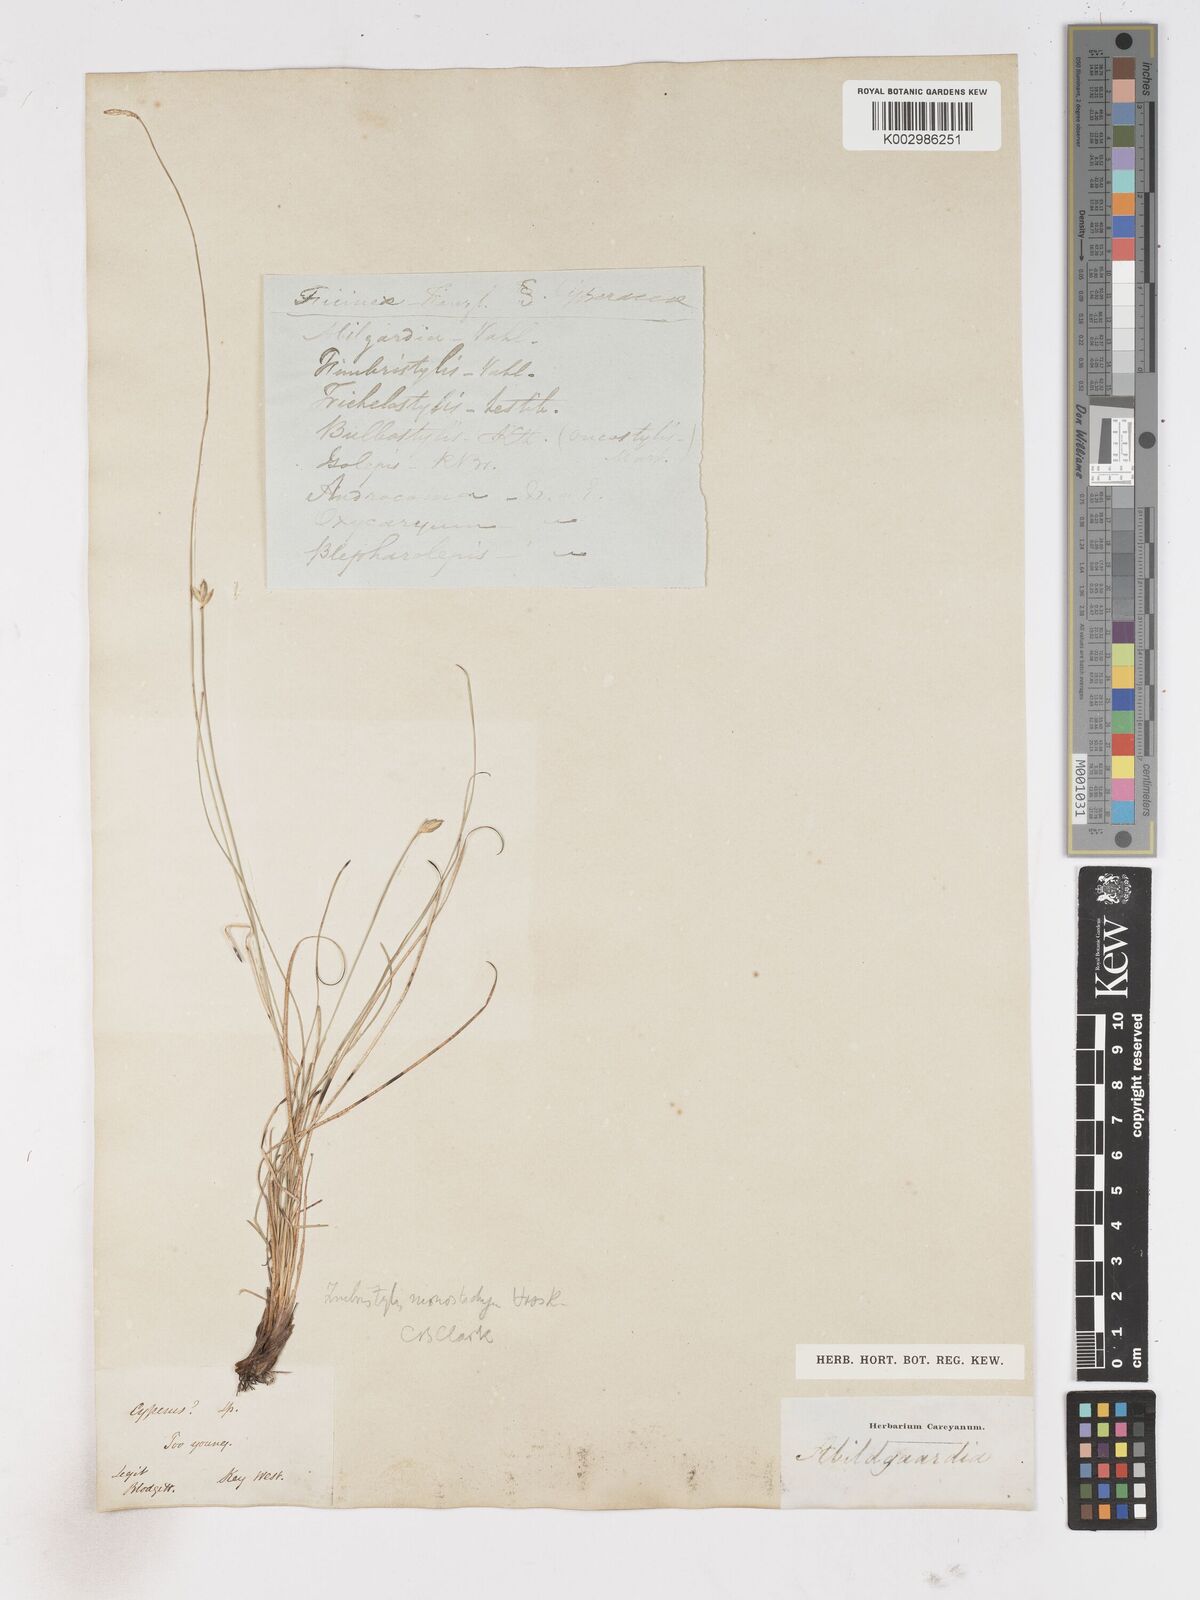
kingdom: Plantae
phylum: Tracheophyta
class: Liliopsida
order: Poales
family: Cyperaceae
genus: Abildgaardia
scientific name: Abildgaardia ovata
